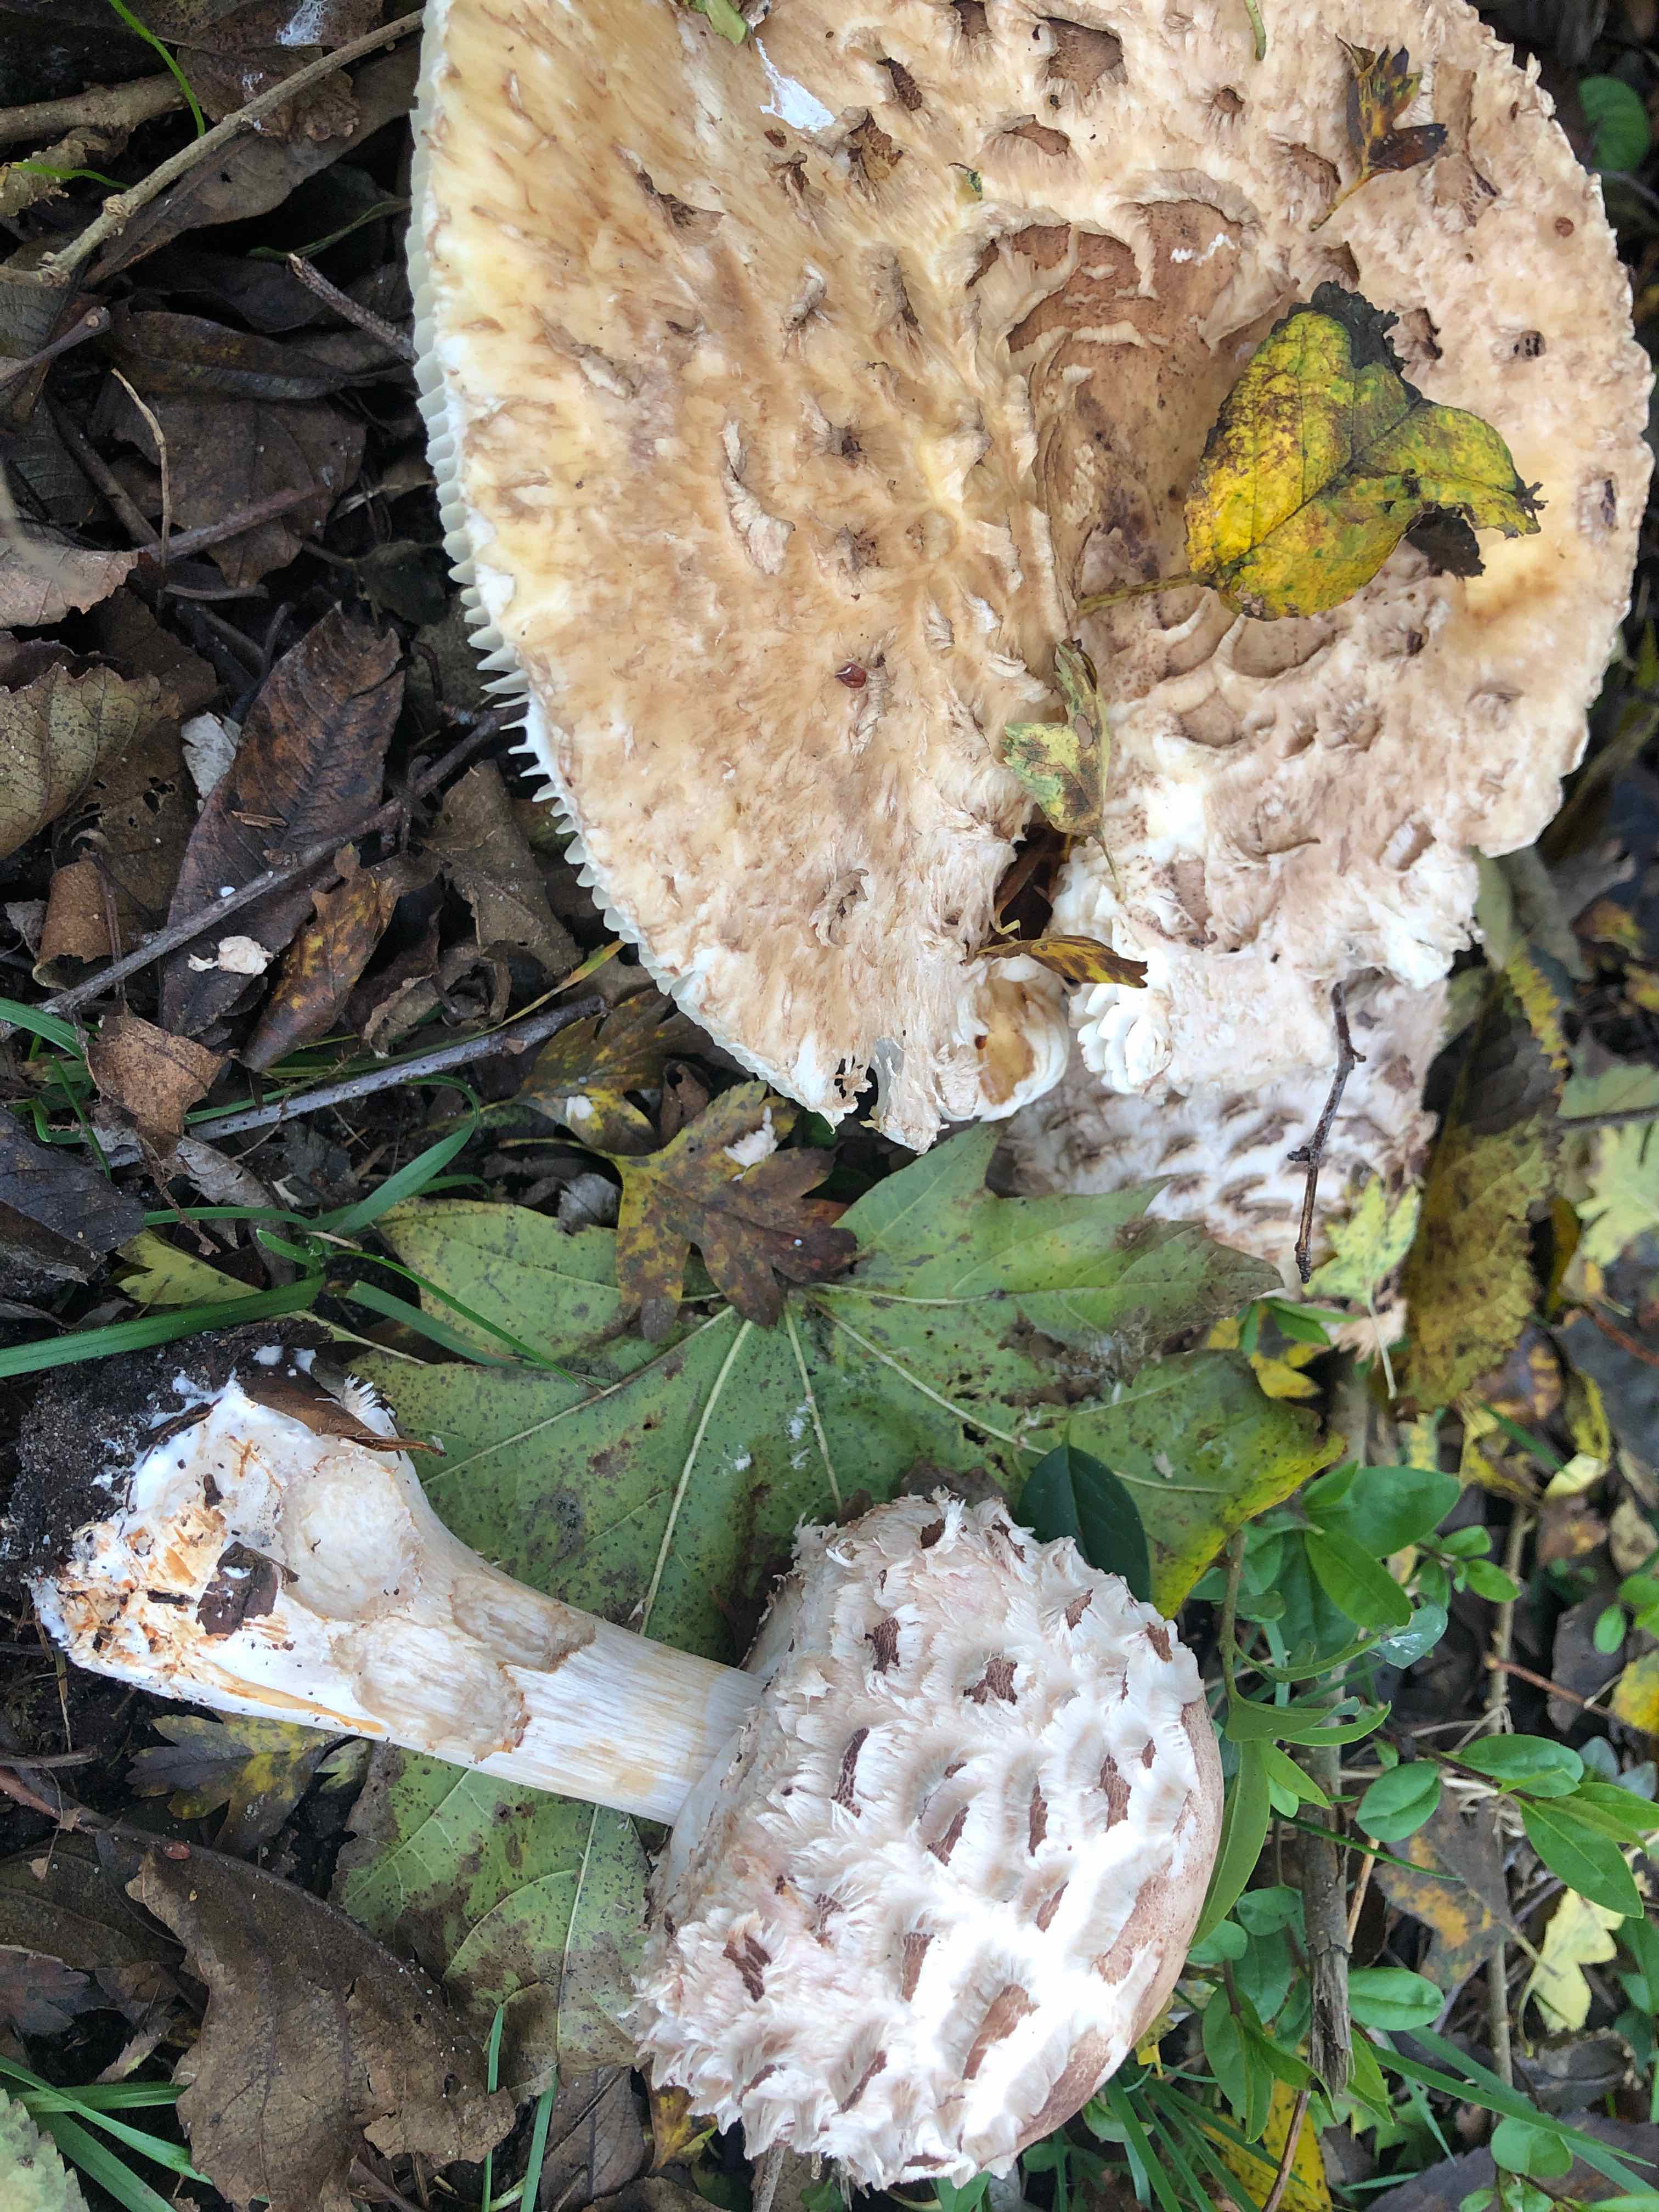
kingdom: Fungi
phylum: Basidiomycota
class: Agaricomycetes
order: Agaricales
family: Agaricaceae
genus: Chlorophyllum
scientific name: Chlorophyllum rhacodes
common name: ægte rabarberhat
